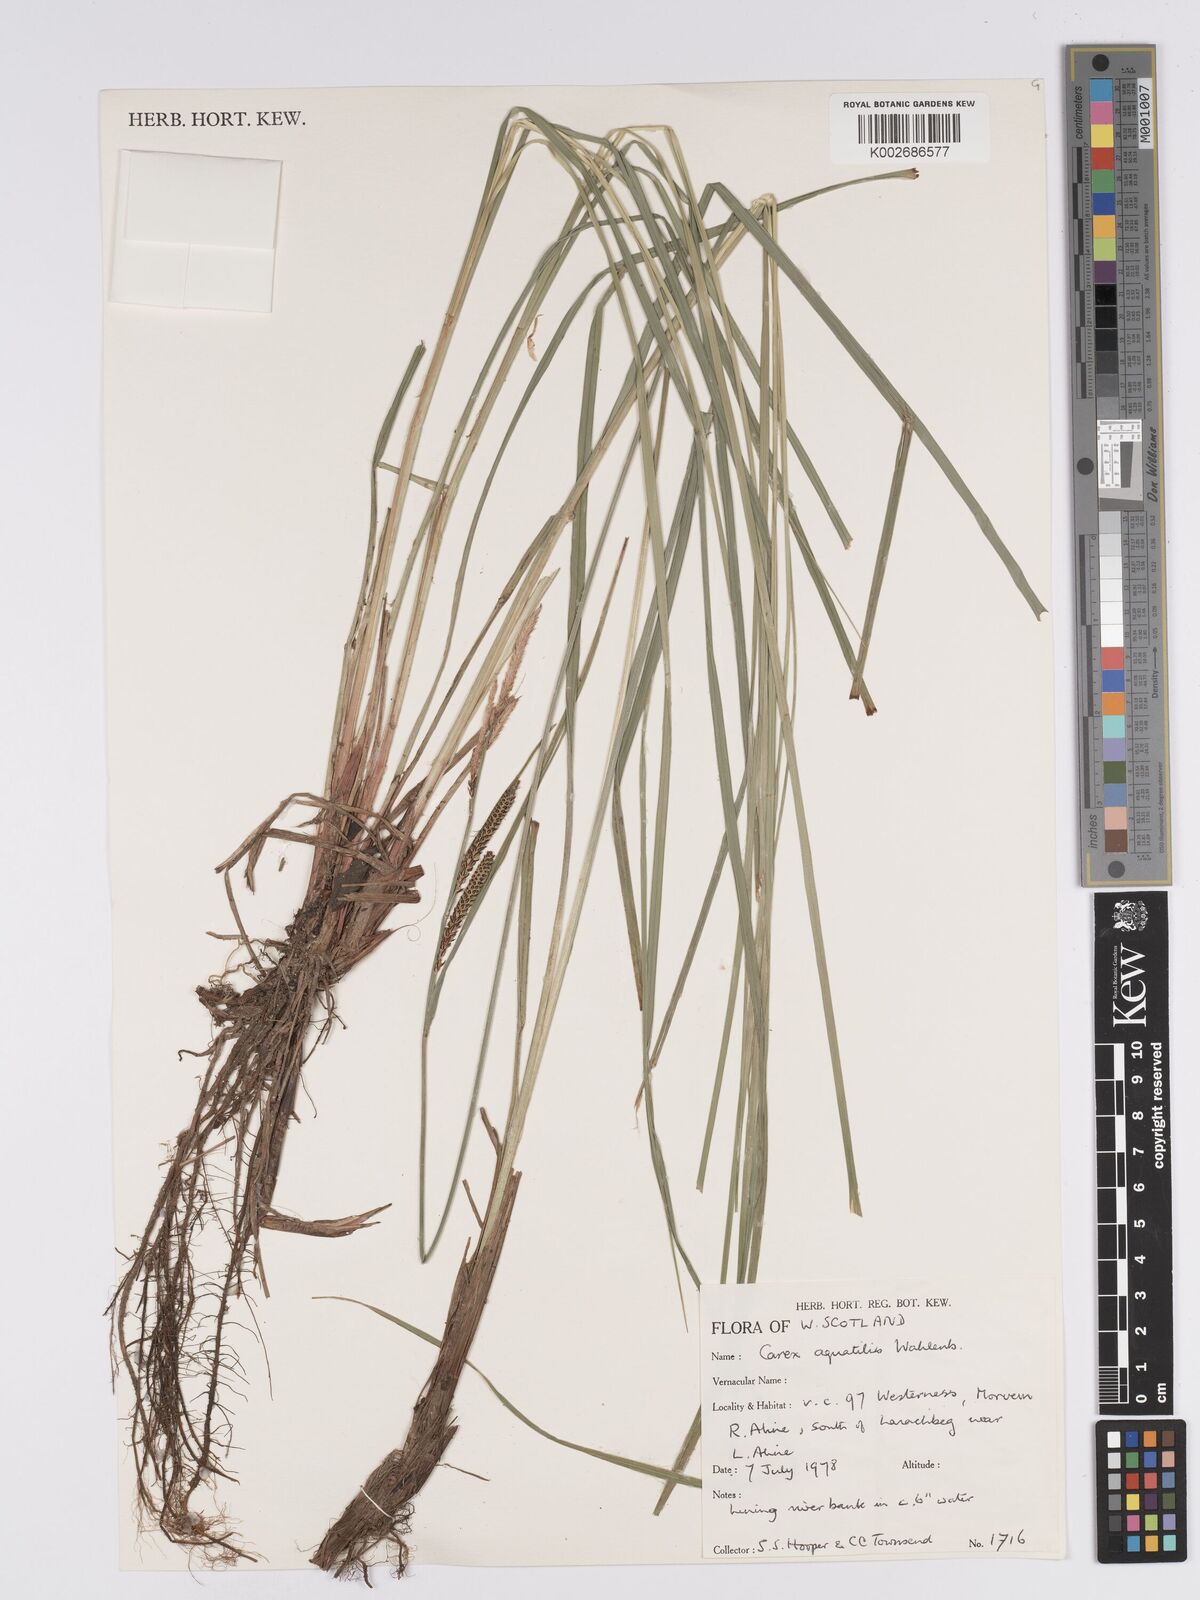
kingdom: Plantae
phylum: Tracheophyta
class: Liliopsida
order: Poales
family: Cyperaceae
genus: Carex
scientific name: Carex aquatilis
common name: Water sedge
